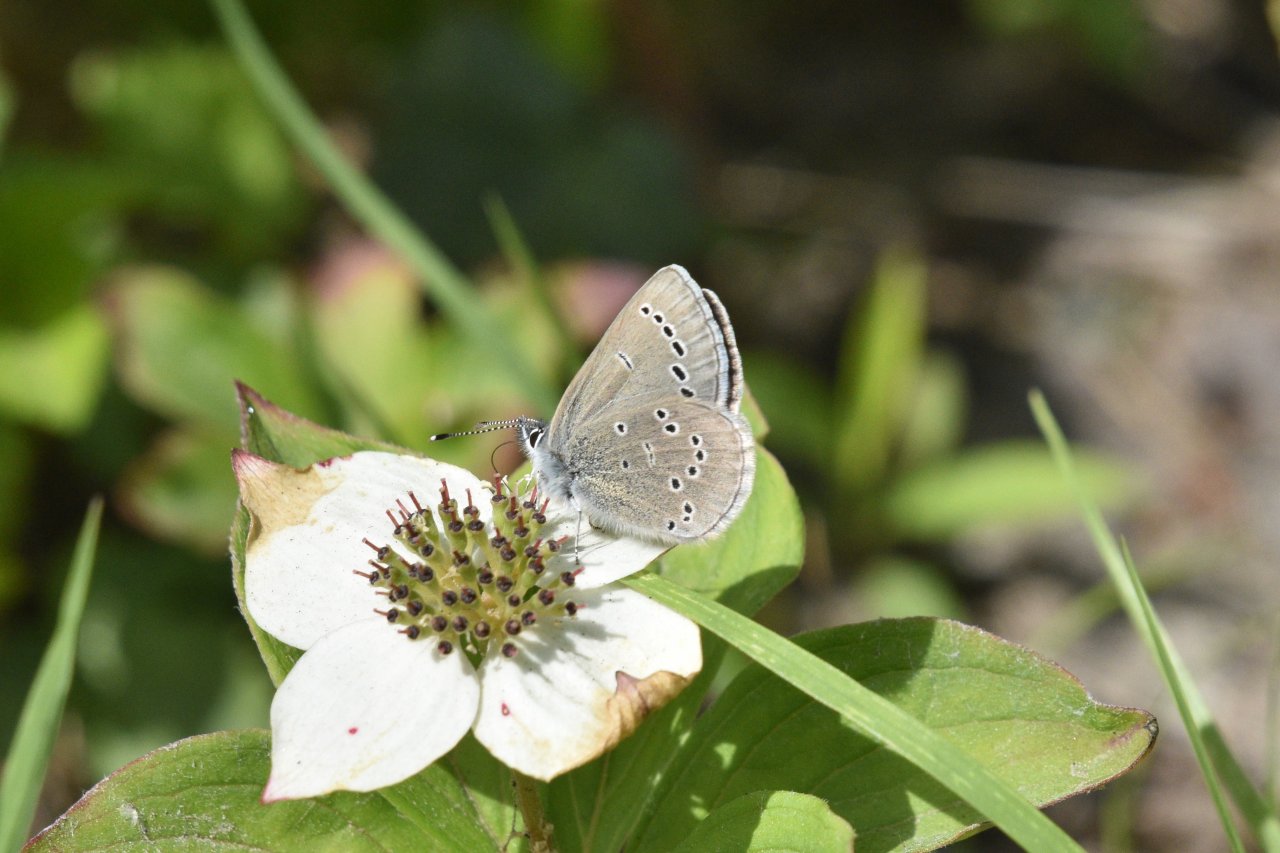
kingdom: Animalia
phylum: Arthropoda
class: Insecta
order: Lepidoptera
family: Lycaenidae
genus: Glaucopsyche
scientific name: Glaucopsyche lygdamus
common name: Silvery Blue
